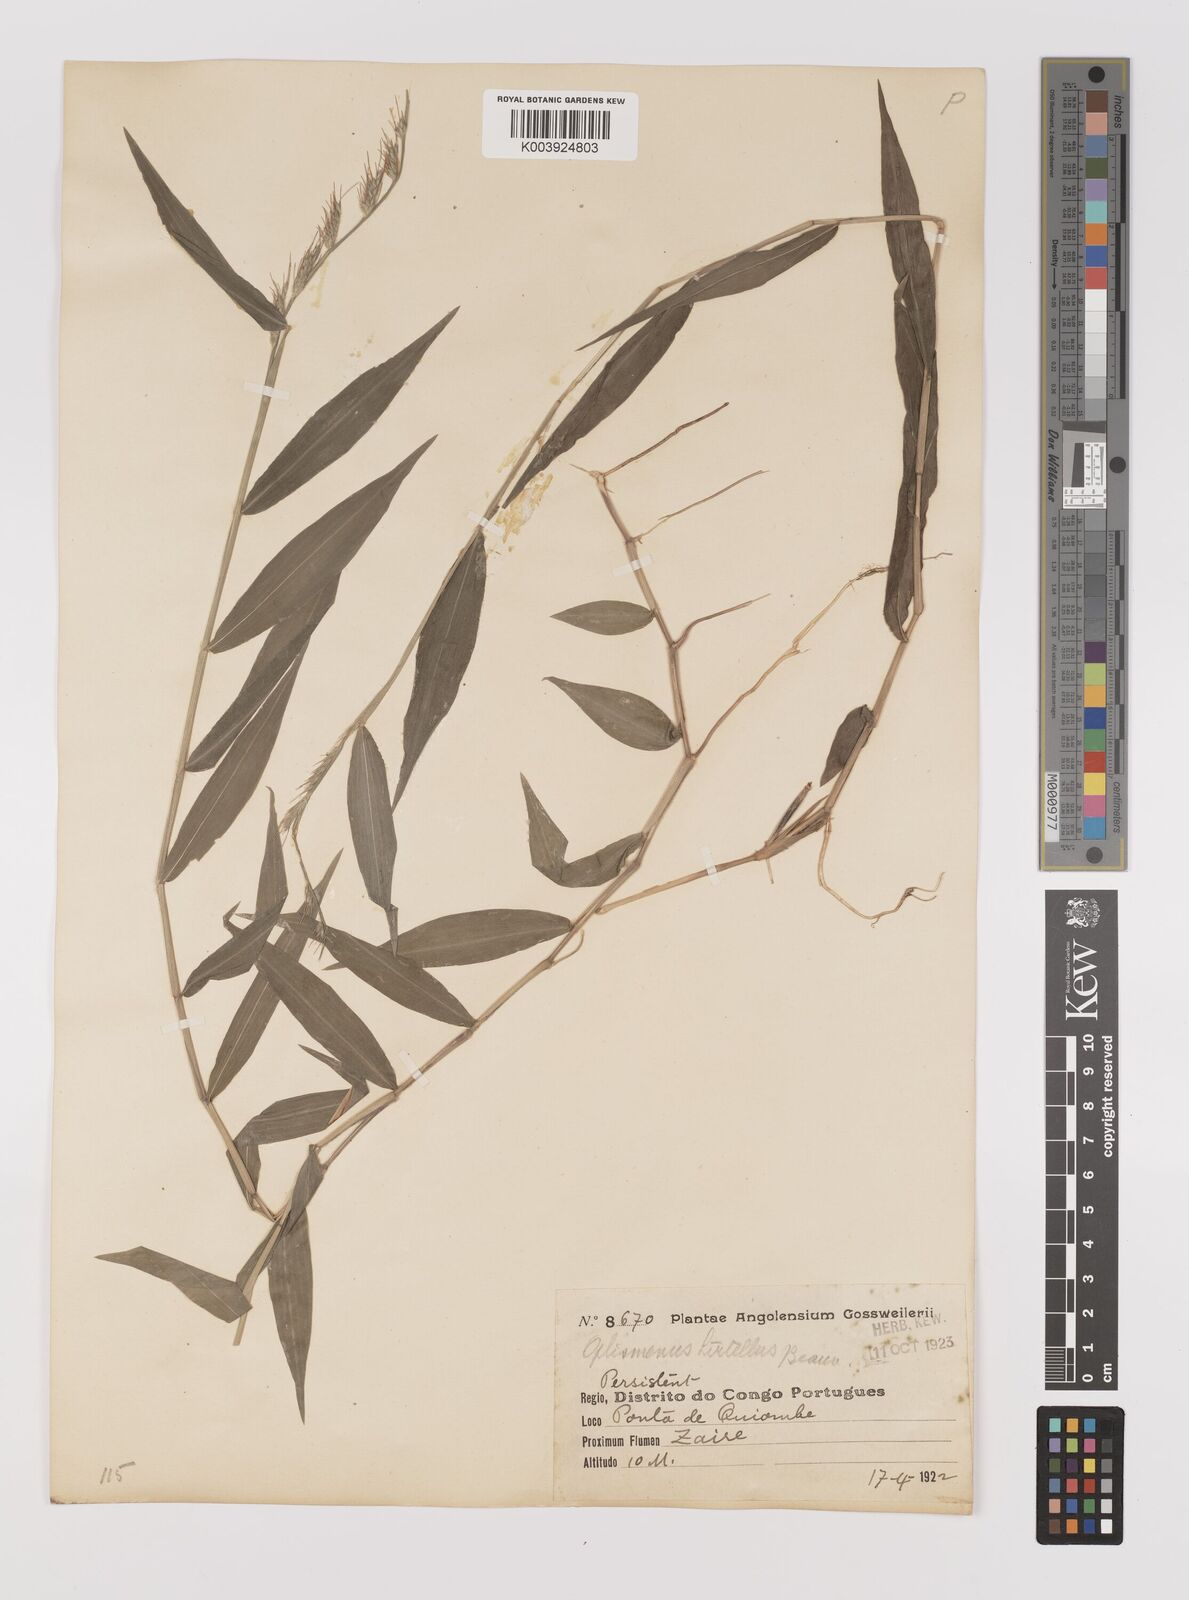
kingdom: Plantae
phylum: Tracheophyta
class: Liliopsida
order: Poales
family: Poaceae
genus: Oplismenus
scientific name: Oplismenus hirtellus
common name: Basketgrass
